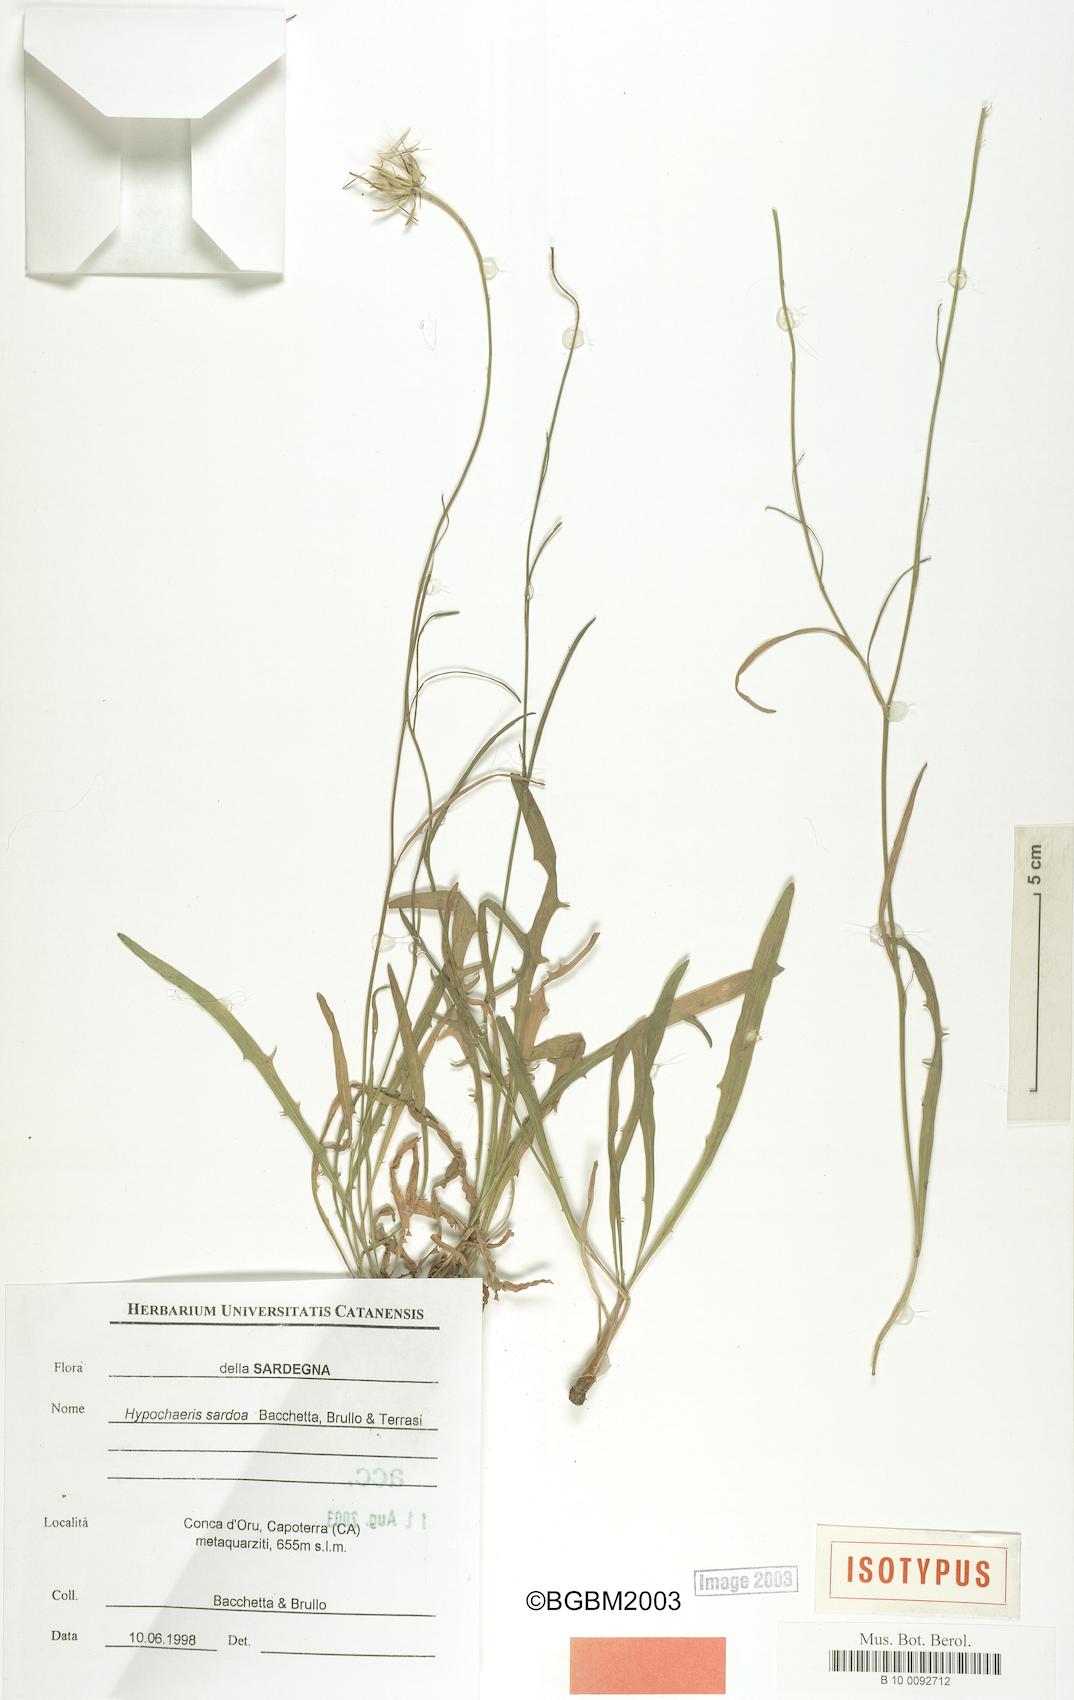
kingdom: Plantae
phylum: Tracheophyta
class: Magnoliopsida
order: Asterales
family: Asteraceae
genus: Hypochaeris
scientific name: Hypochaeris sardoa
